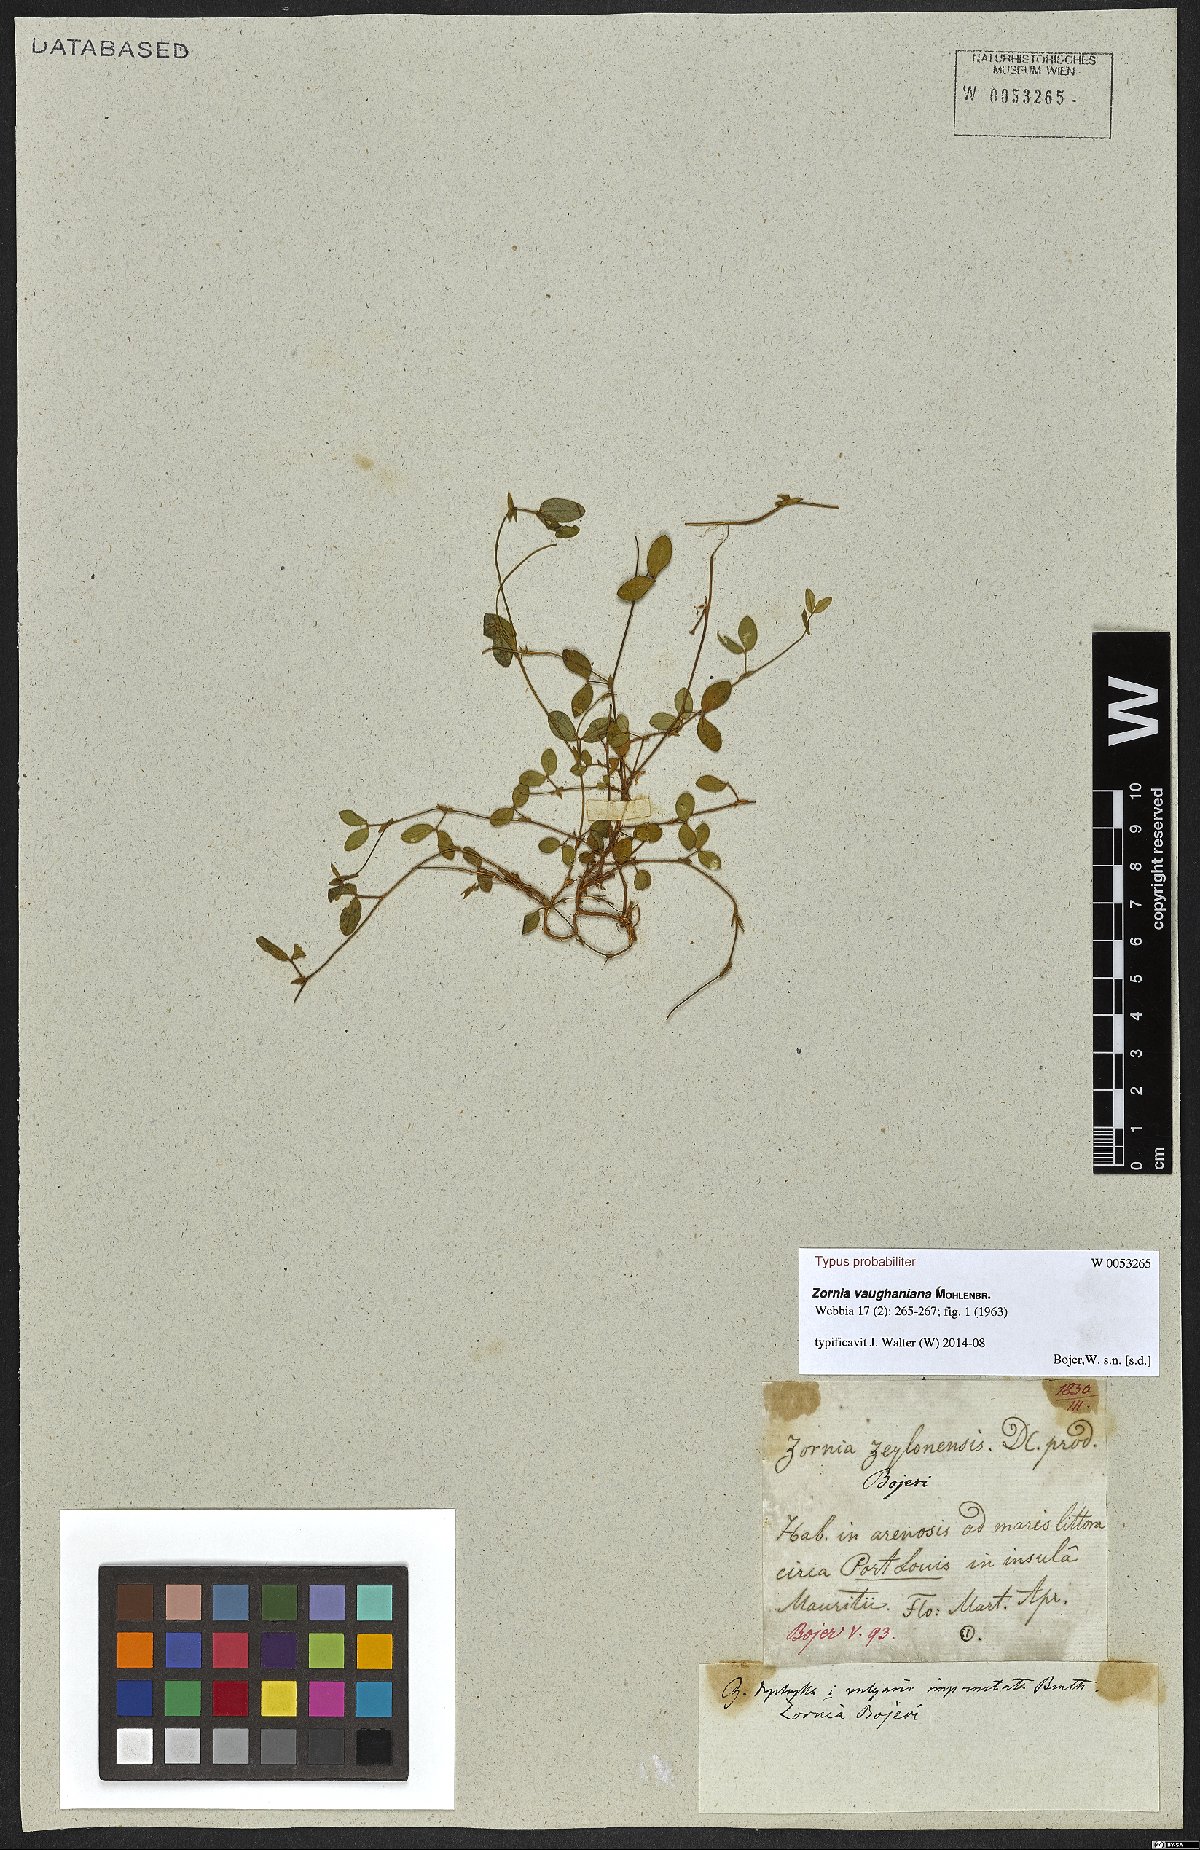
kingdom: Plantae
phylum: Tracheophyta
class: Magnoliopsida
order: Fabales
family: Fabaceae
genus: Zornia
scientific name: Zornia vaughaniana
